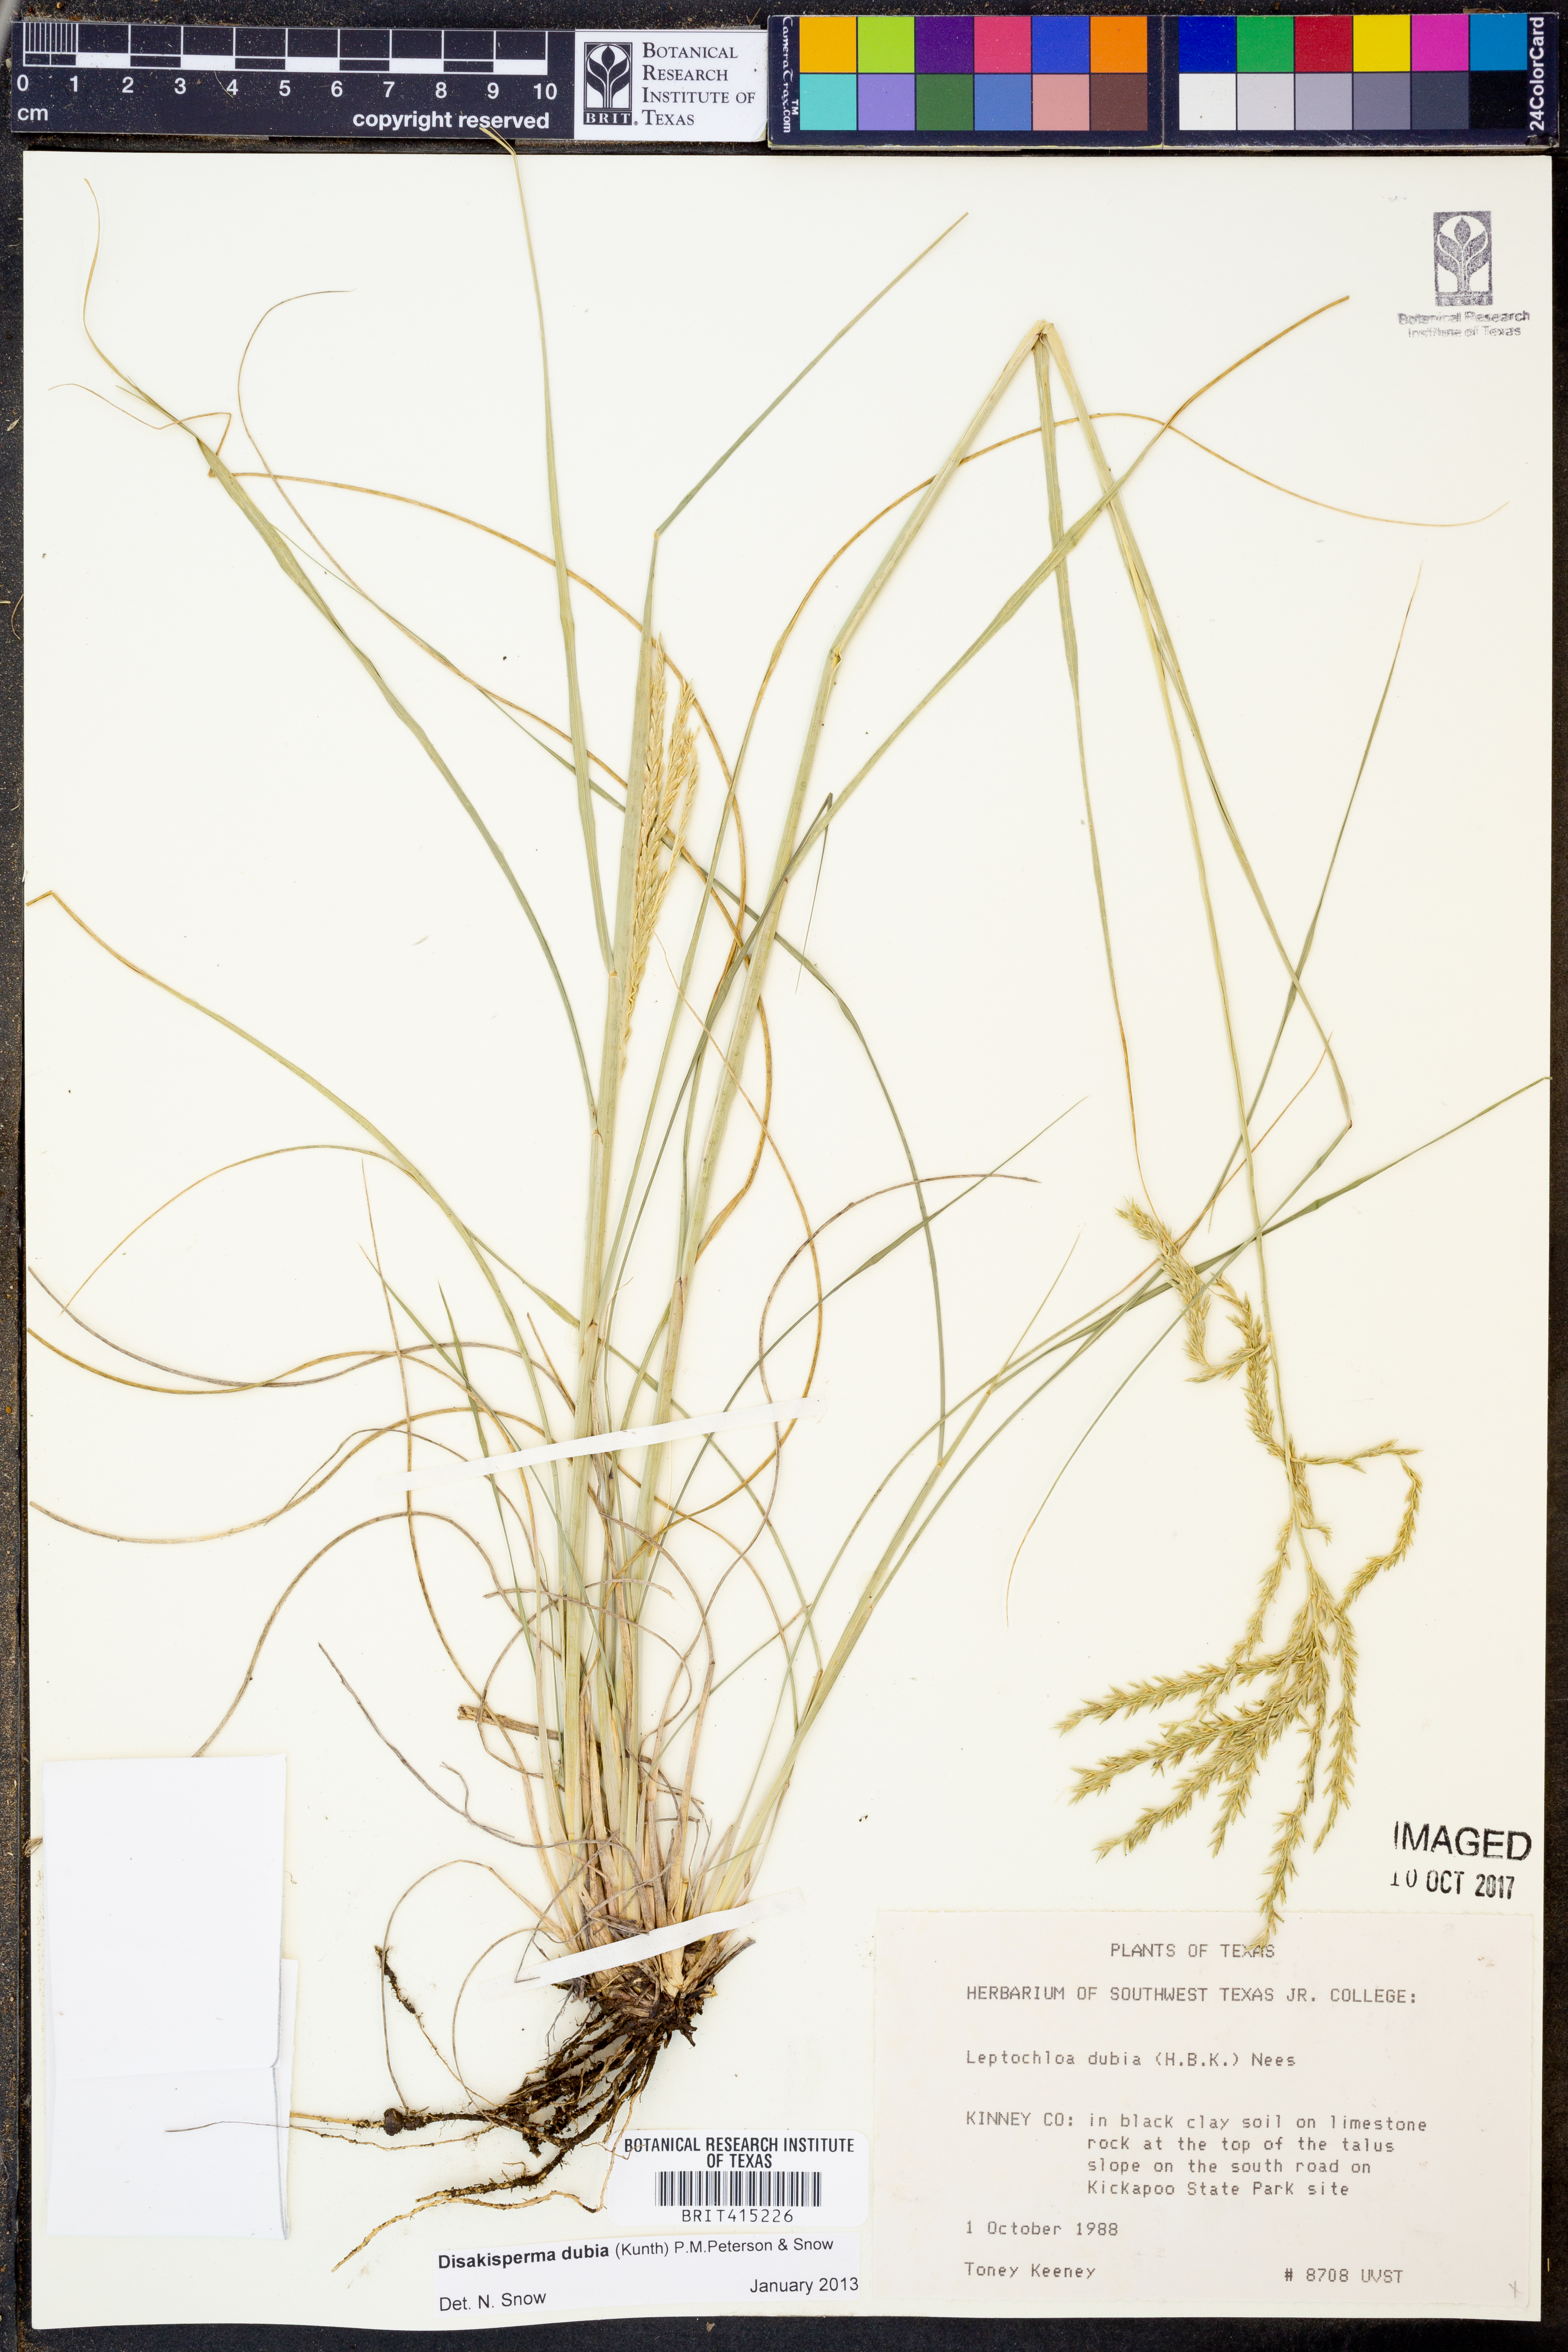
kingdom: Plantae
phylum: Tracheophyta
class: Liliopsida
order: Poales
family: Poaceae
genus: Disakisperma
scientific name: Disakisperma dubium
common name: Green sprangletop
